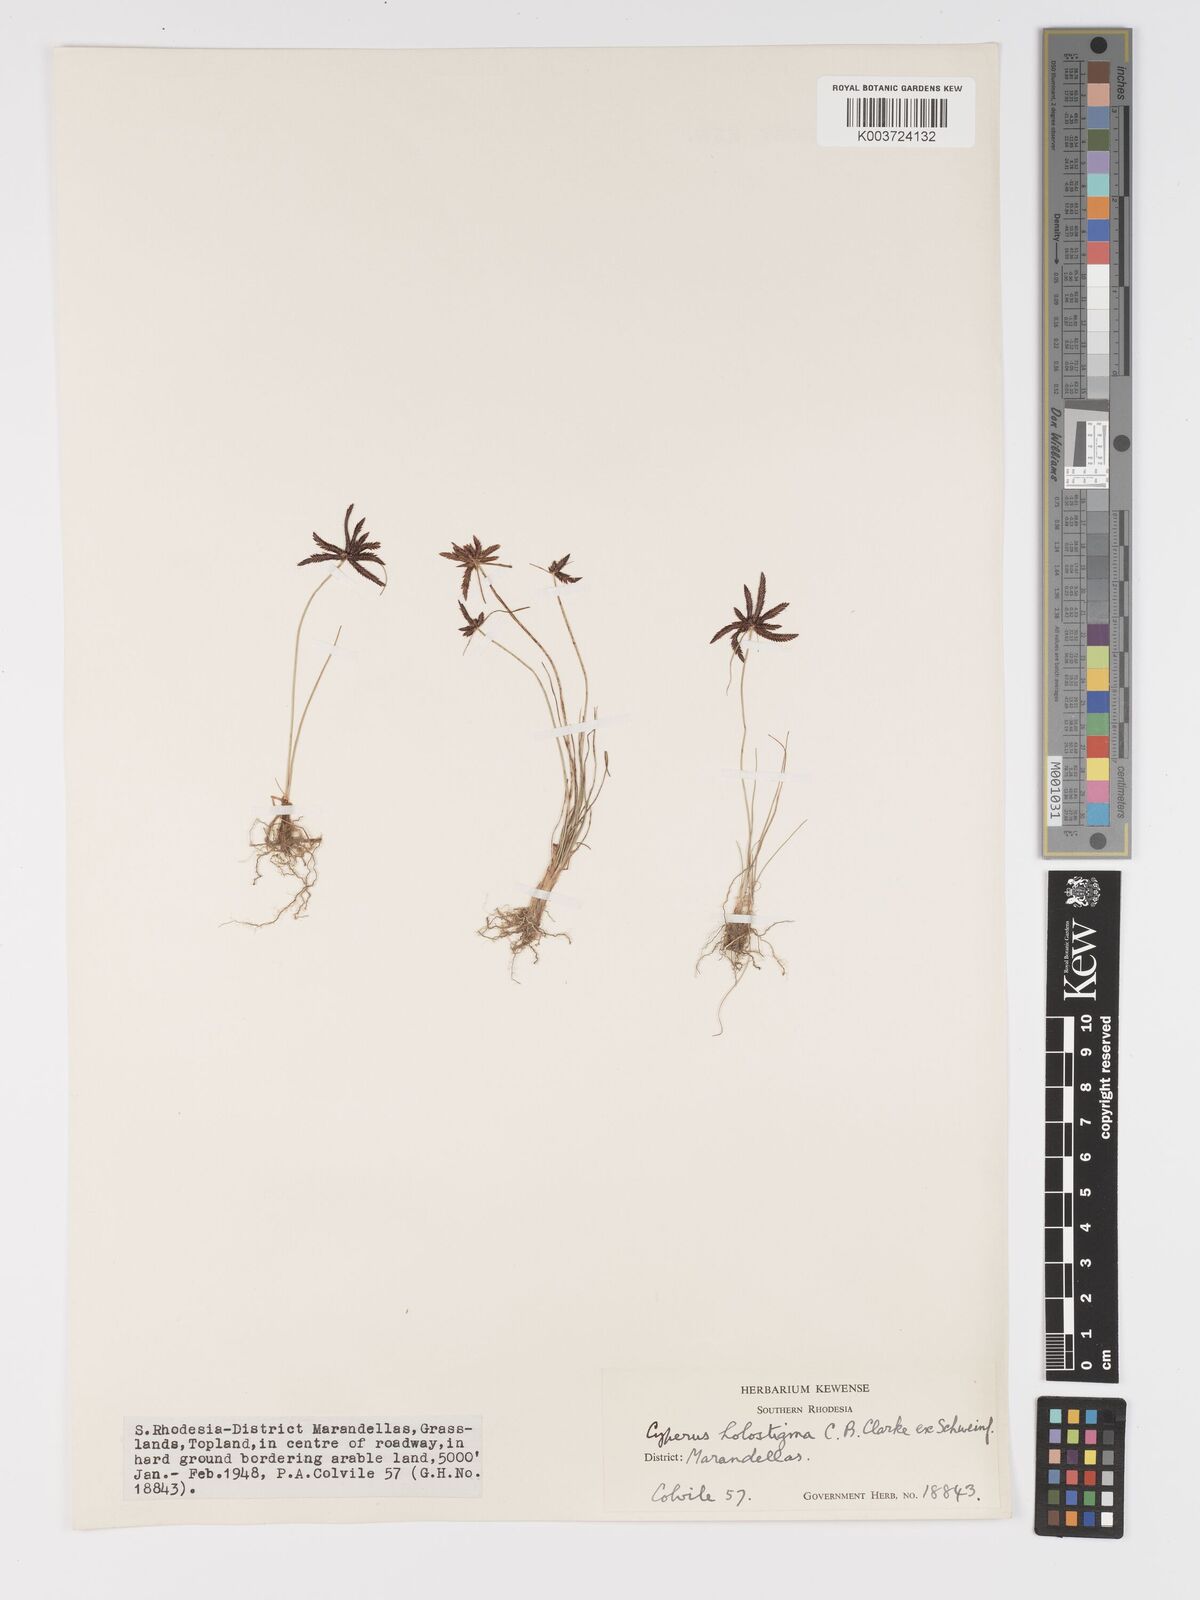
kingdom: Plantae
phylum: Tracheophyta
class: Liliopsida
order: Poales
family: Cyperaceae
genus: Cyperus
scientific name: Cyperus holostigma
